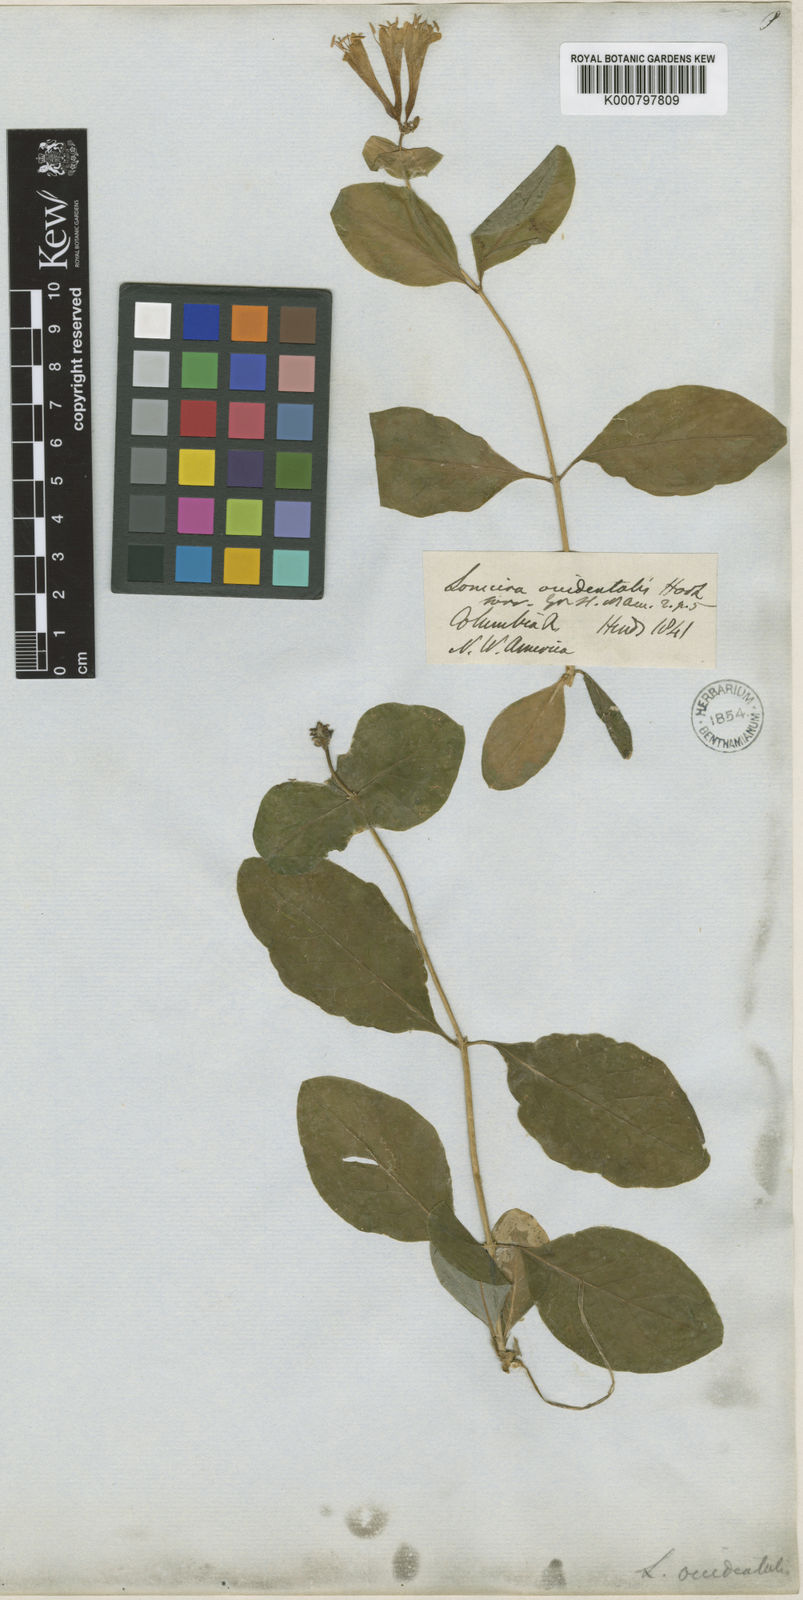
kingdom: Plantae
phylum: Tracheophyta
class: Magnoliopsida
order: Dipsacales
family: Caprifoliaceae
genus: Lonicera
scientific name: Lonicera ciliosa
